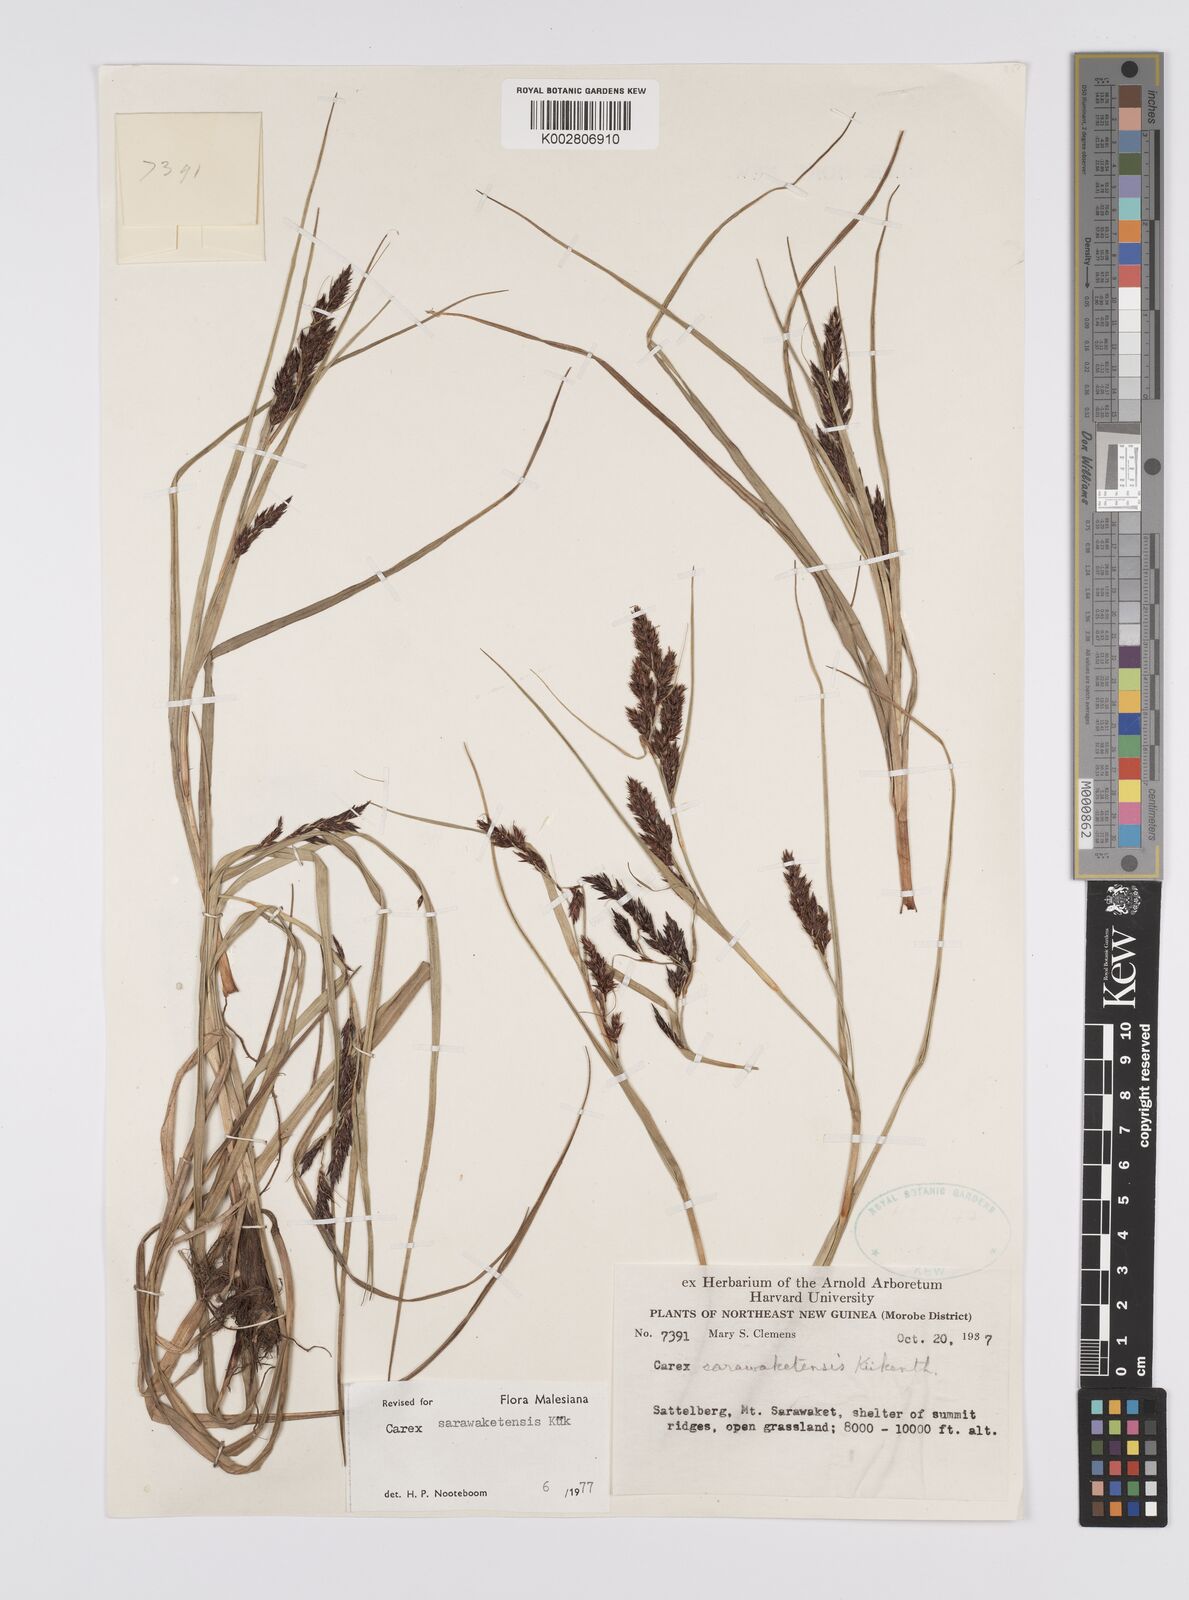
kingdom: Plantae
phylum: Tracheophyta
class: Liliopsida
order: Poales
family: Cyperaceae
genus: Carex
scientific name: Carex sarawaketensis
